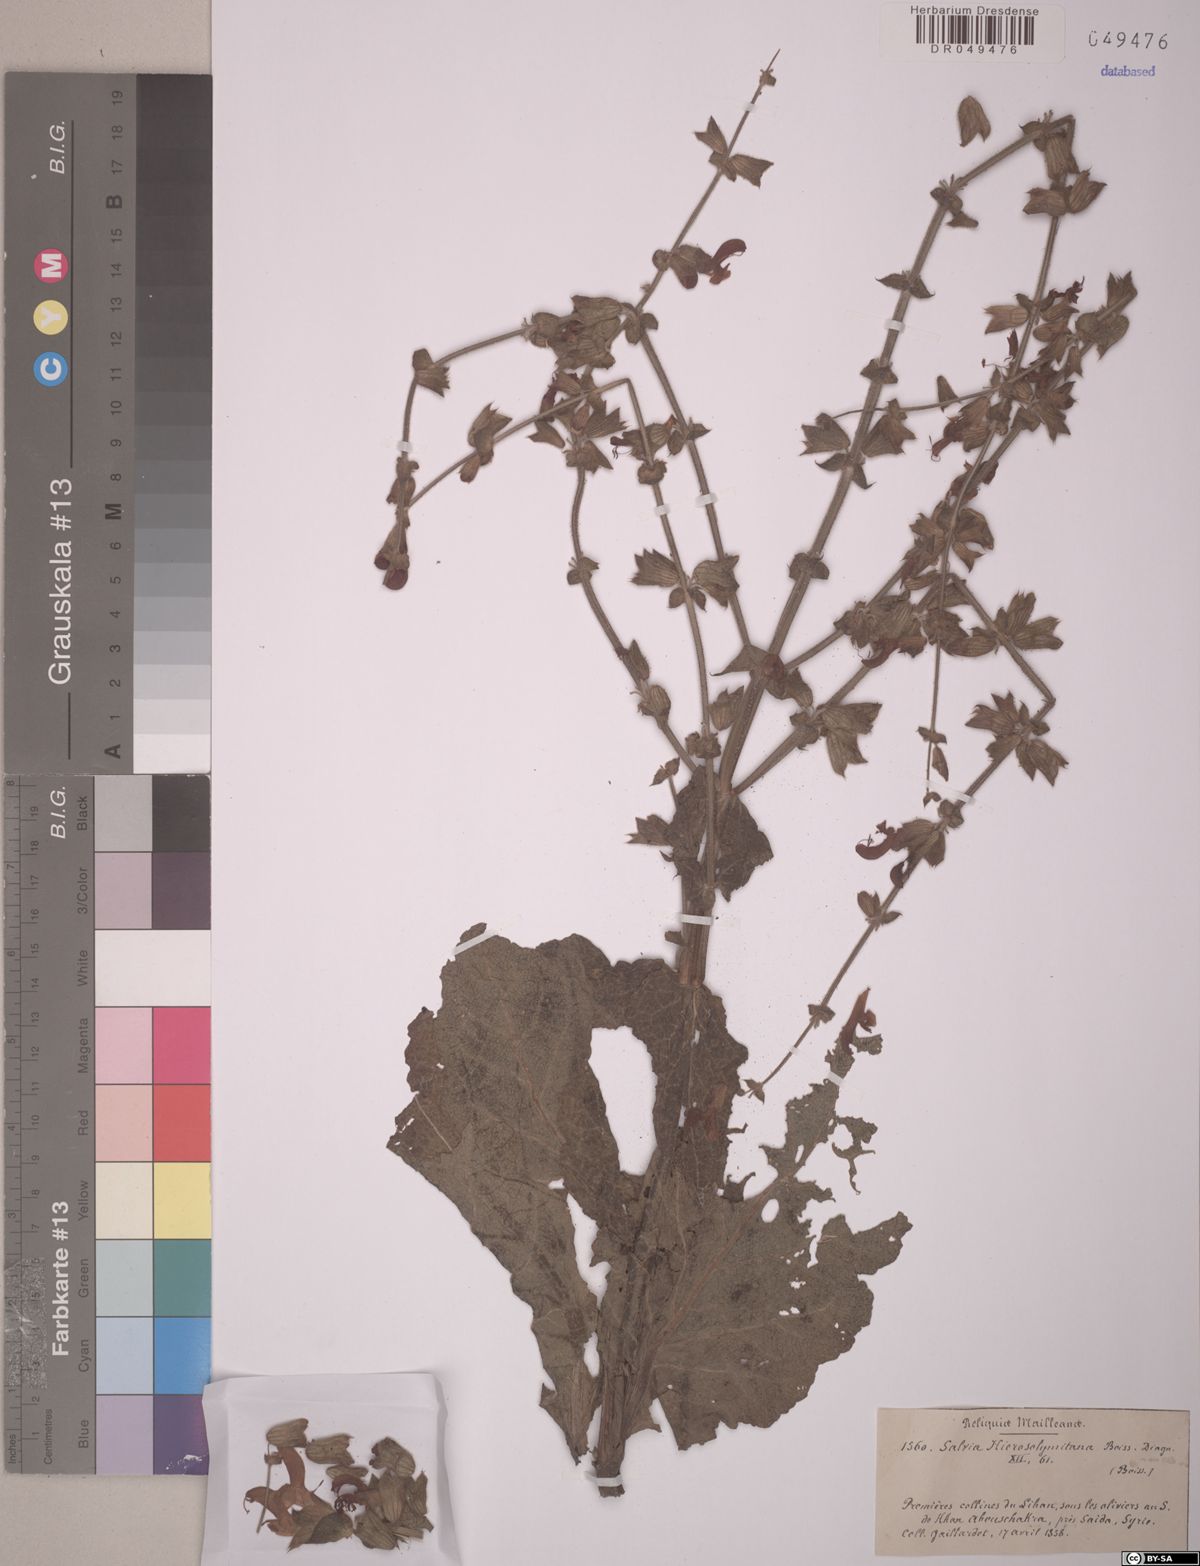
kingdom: Plantae
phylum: Tracheophyta
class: Magnoliopsida
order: Lamiales
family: Lamiaceae
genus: Salvia
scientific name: Salvia hierosolymitana
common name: Jerusalem salvia
